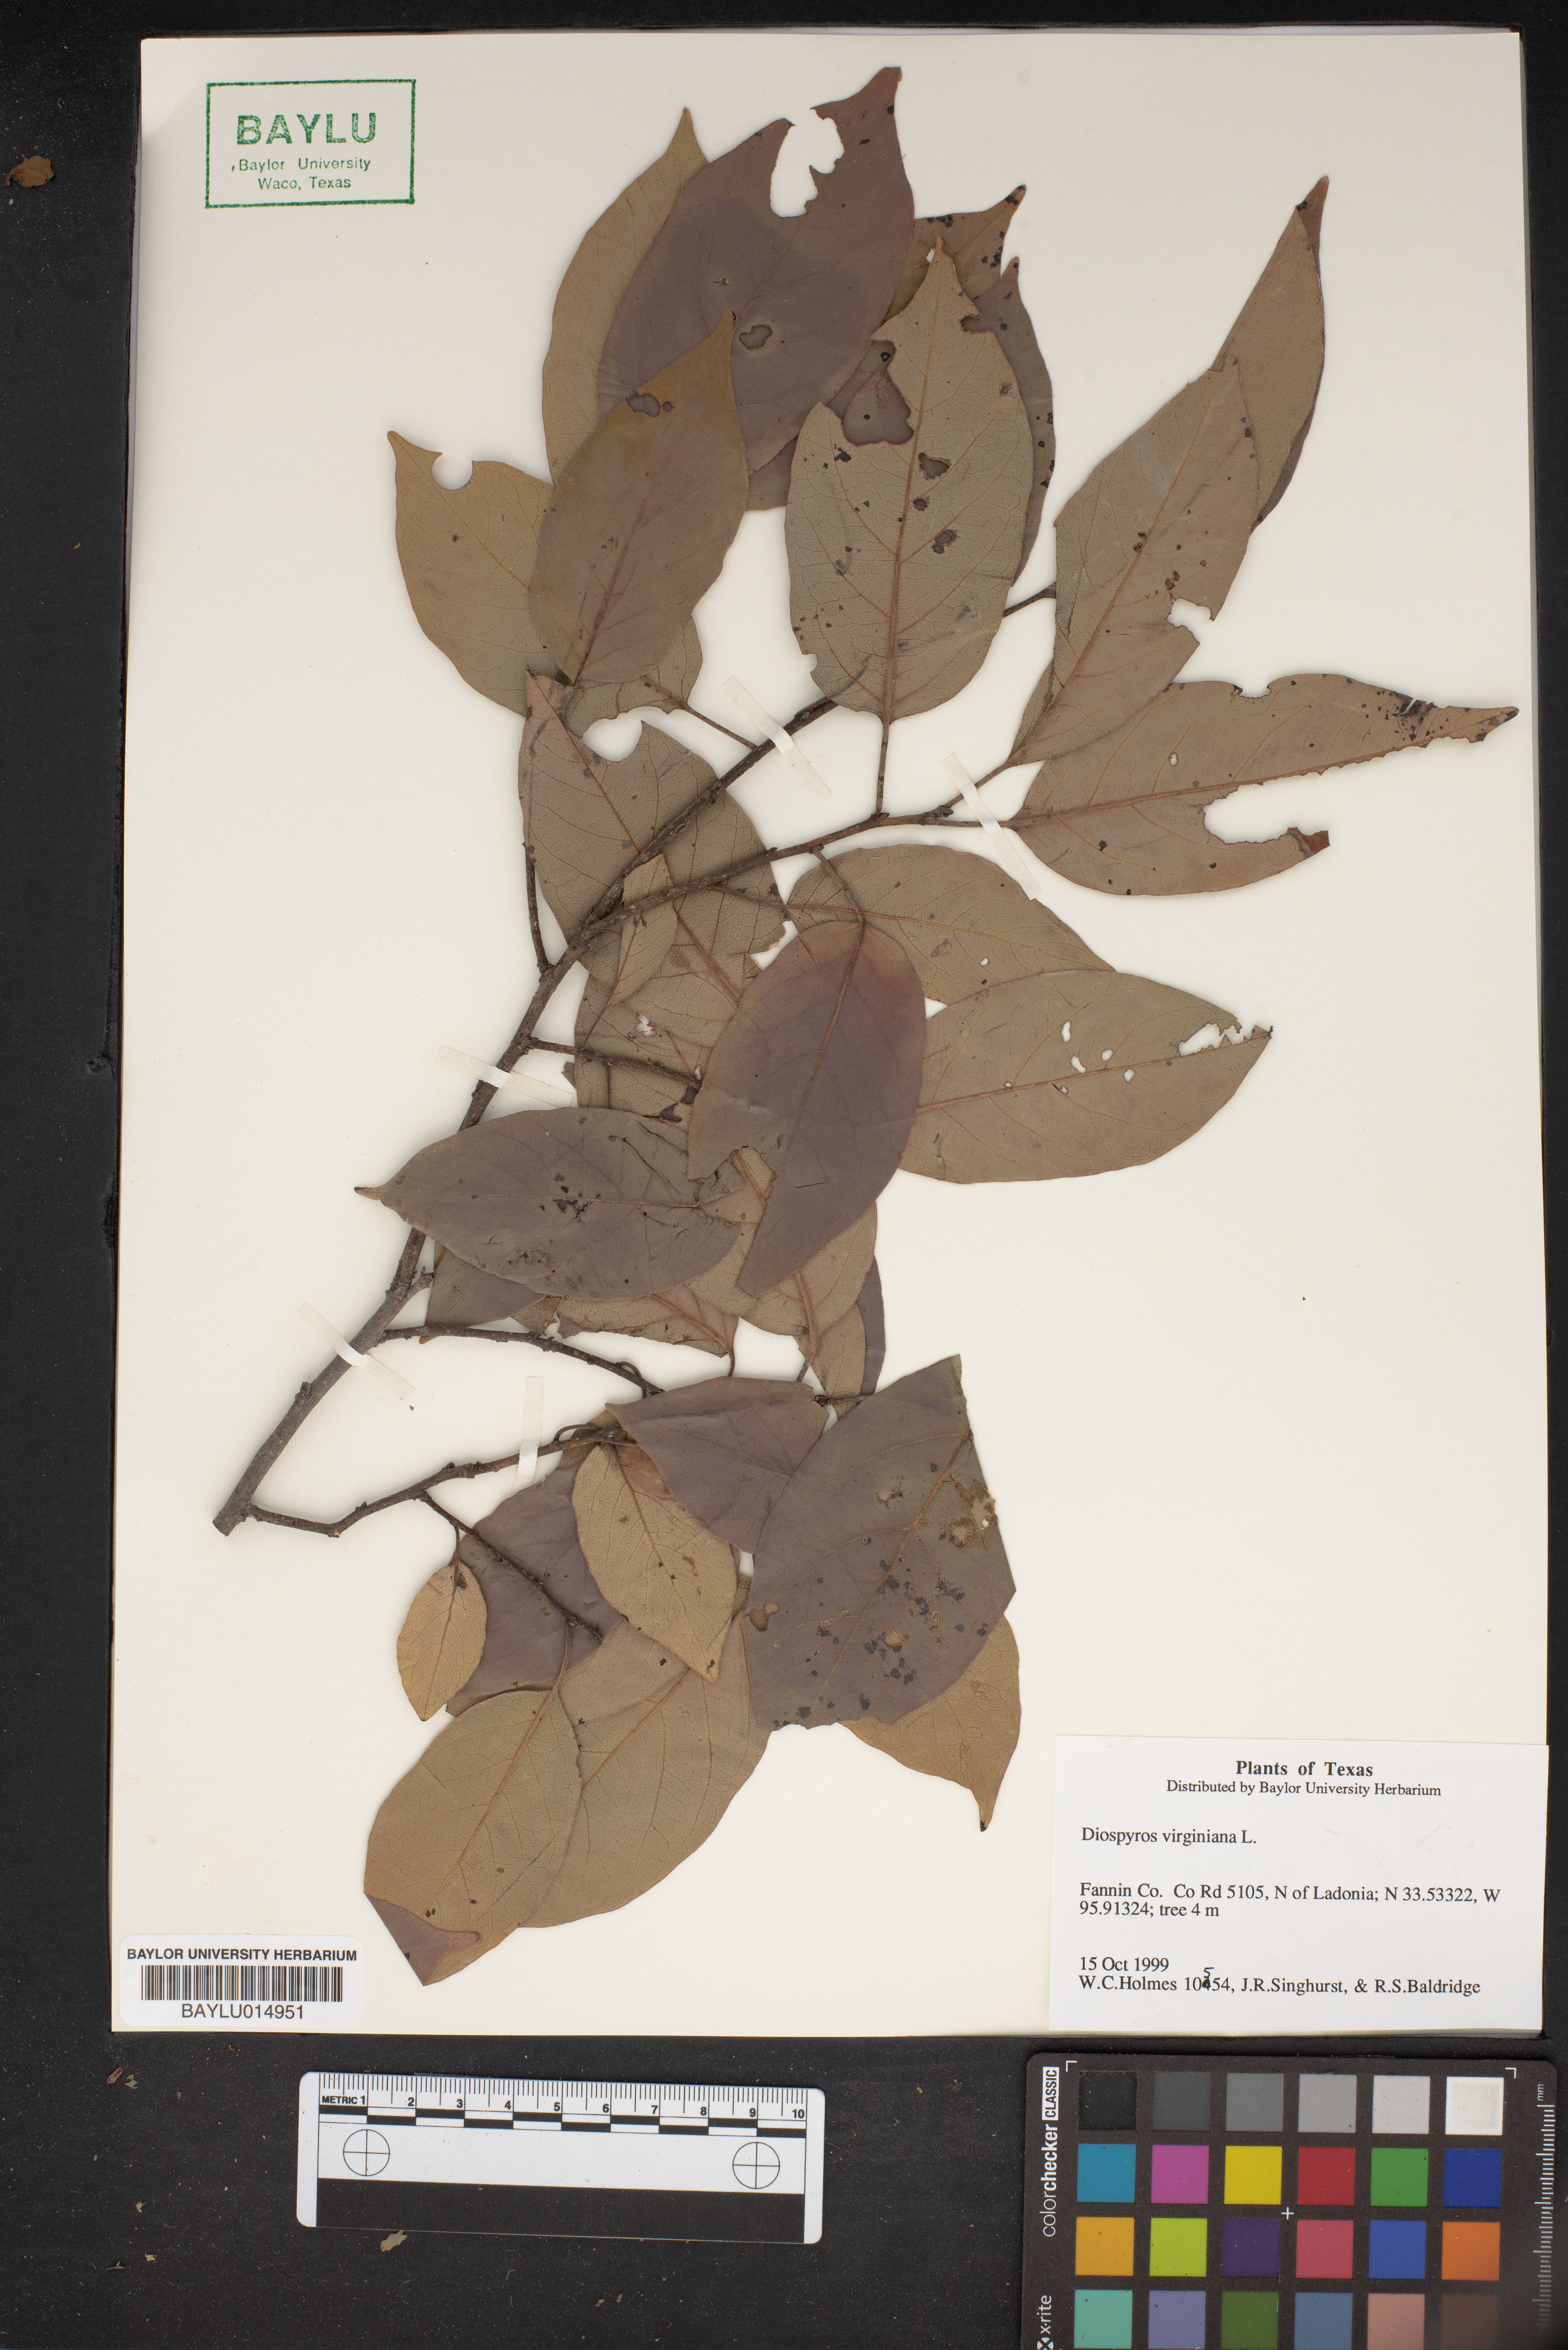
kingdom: Plantae
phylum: Tracheophyta
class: Magnoliopsida
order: Ericales
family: Ebenaceae
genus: Diospyros
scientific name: Diospyros virginiana
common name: Persimmon
